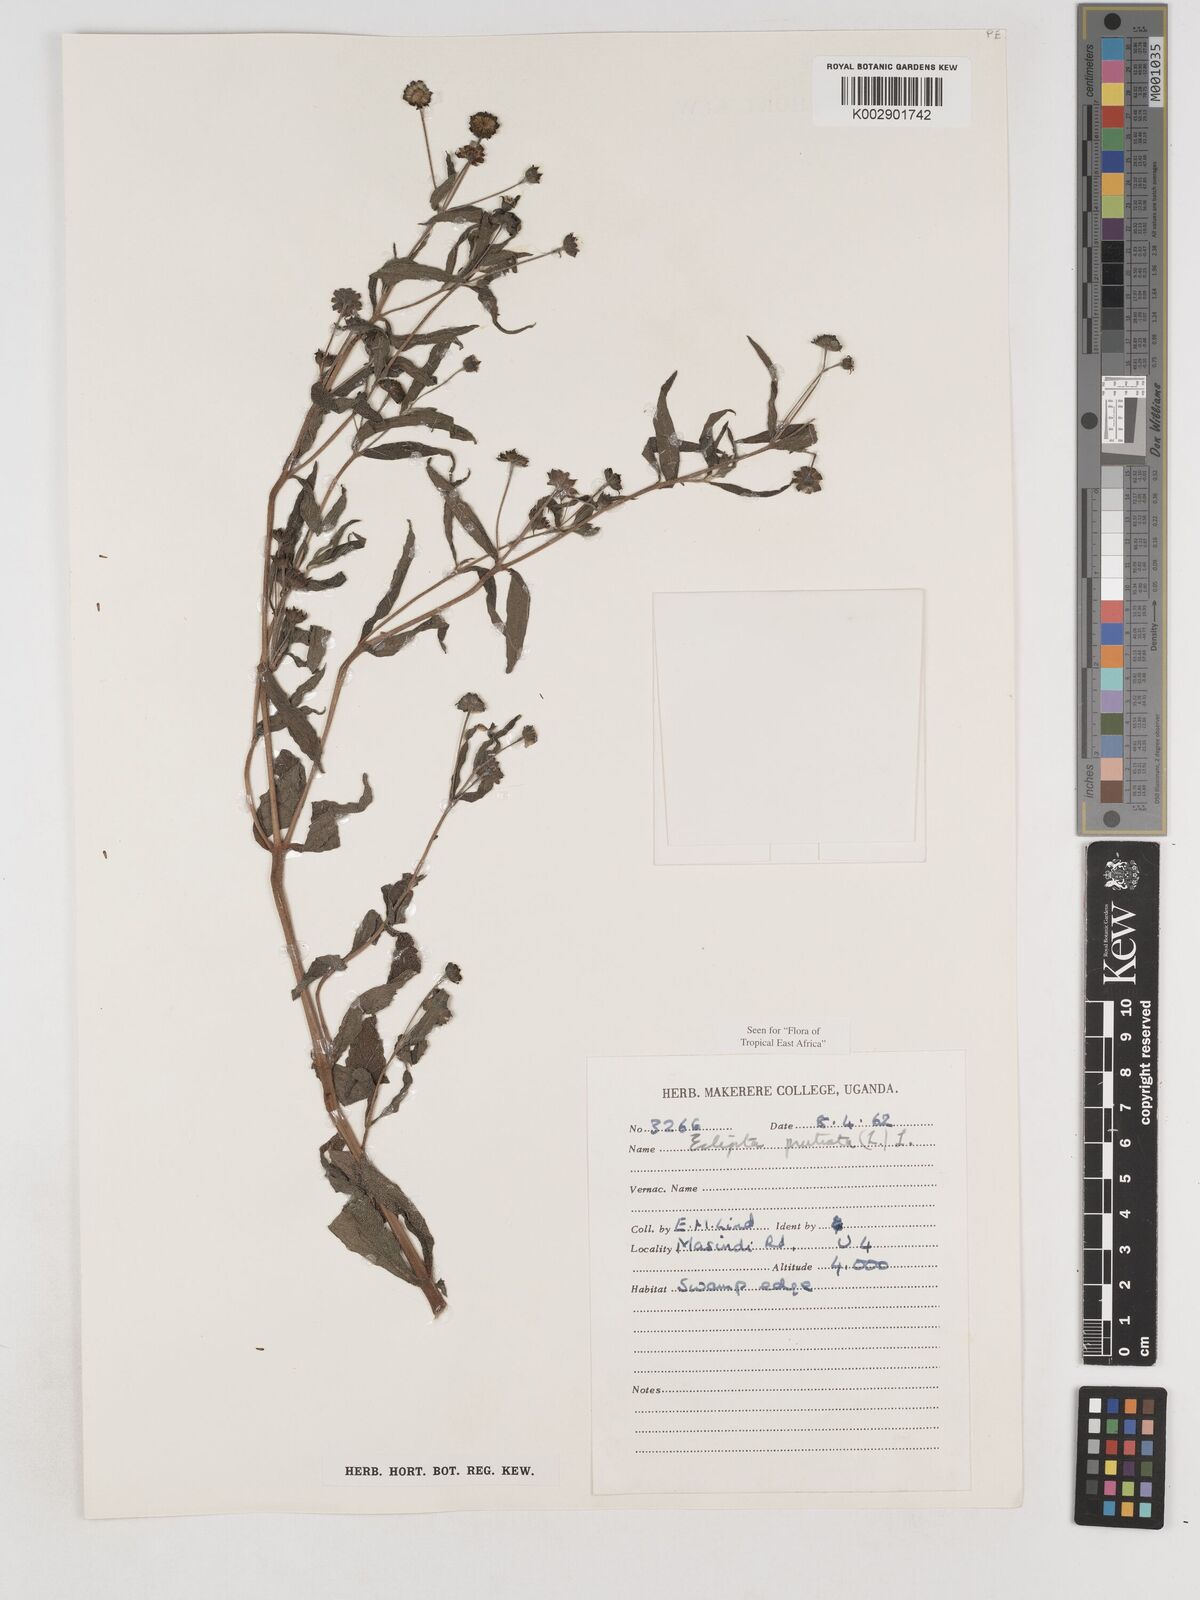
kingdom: Plantae
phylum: Tracheophyta
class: Magnoliopsida
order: Asterales
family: Asteraceae
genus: Eclipta
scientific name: Eclipta prostrata
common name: False daisy
